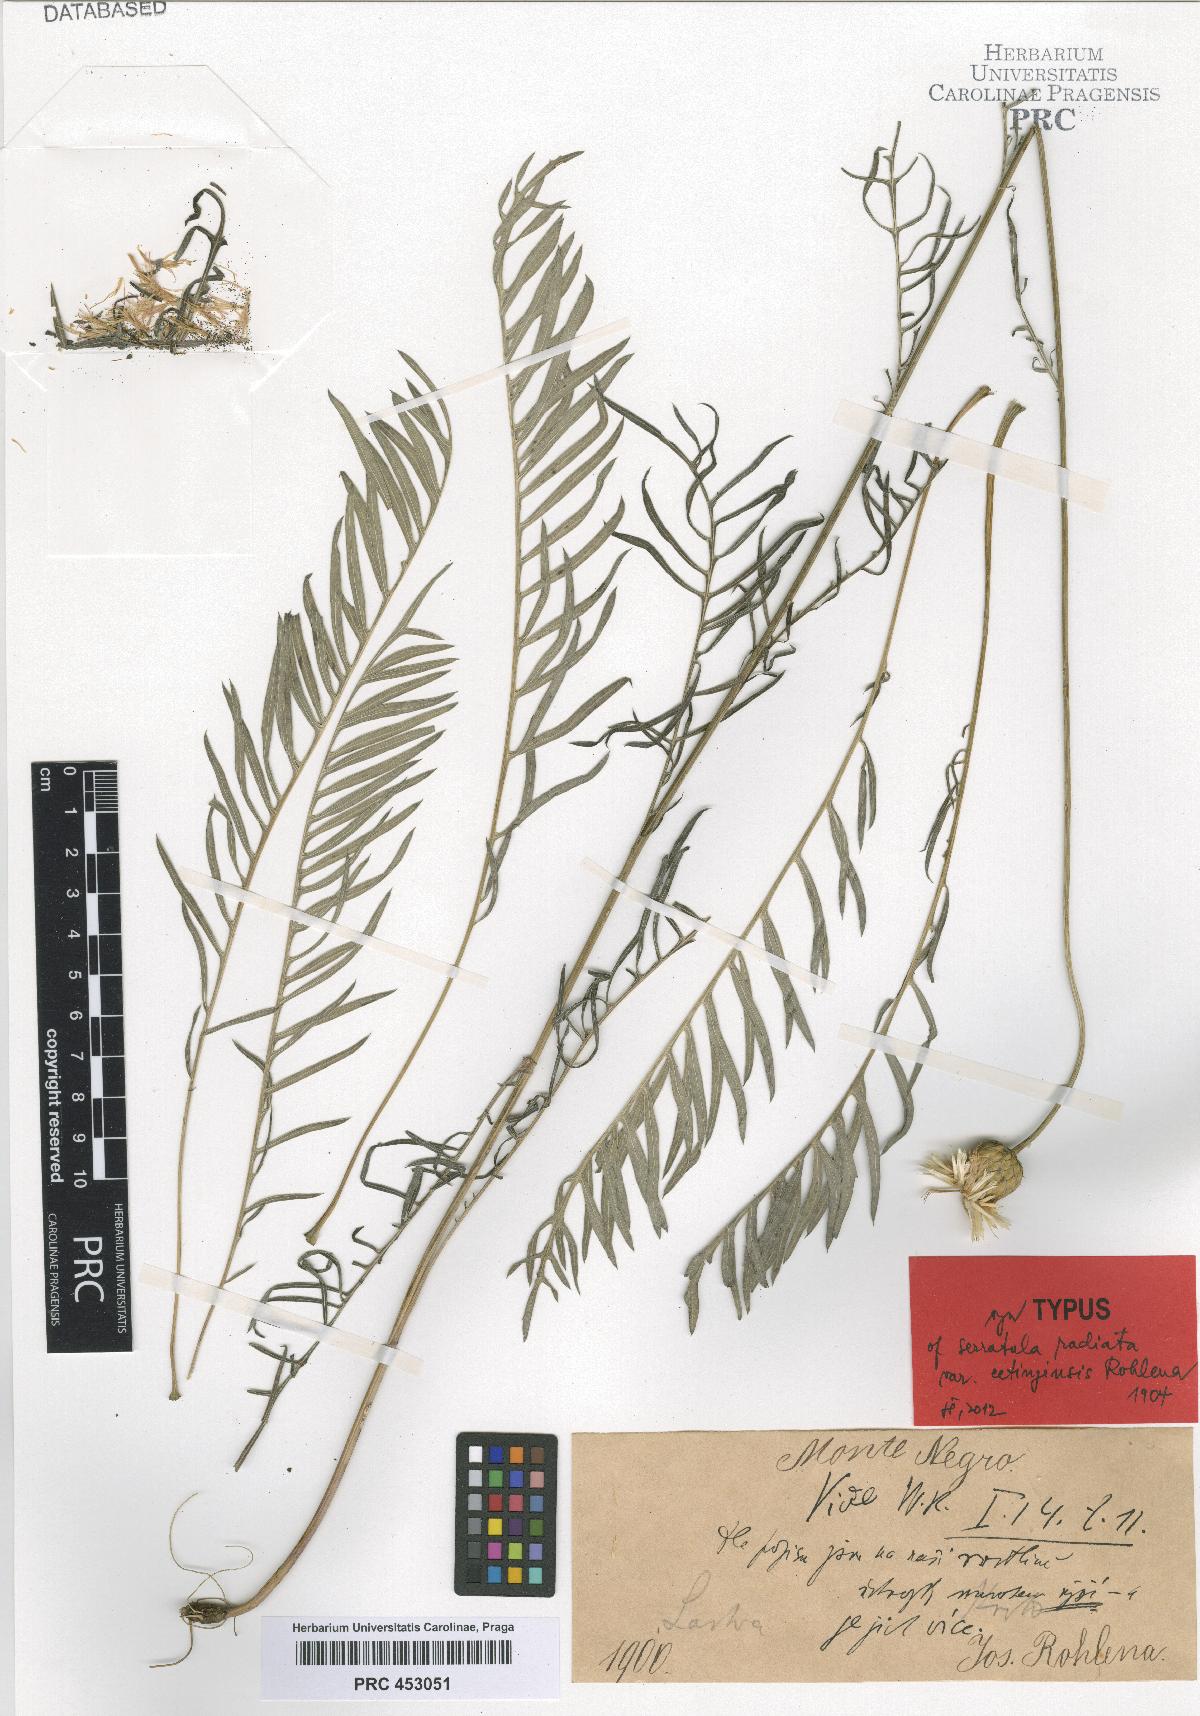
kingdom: Plantae
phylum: Tracheophyta
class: Magnoliopsida
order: Asterales
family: Asteraceae
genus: Klasea
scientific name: Klasea radiata
